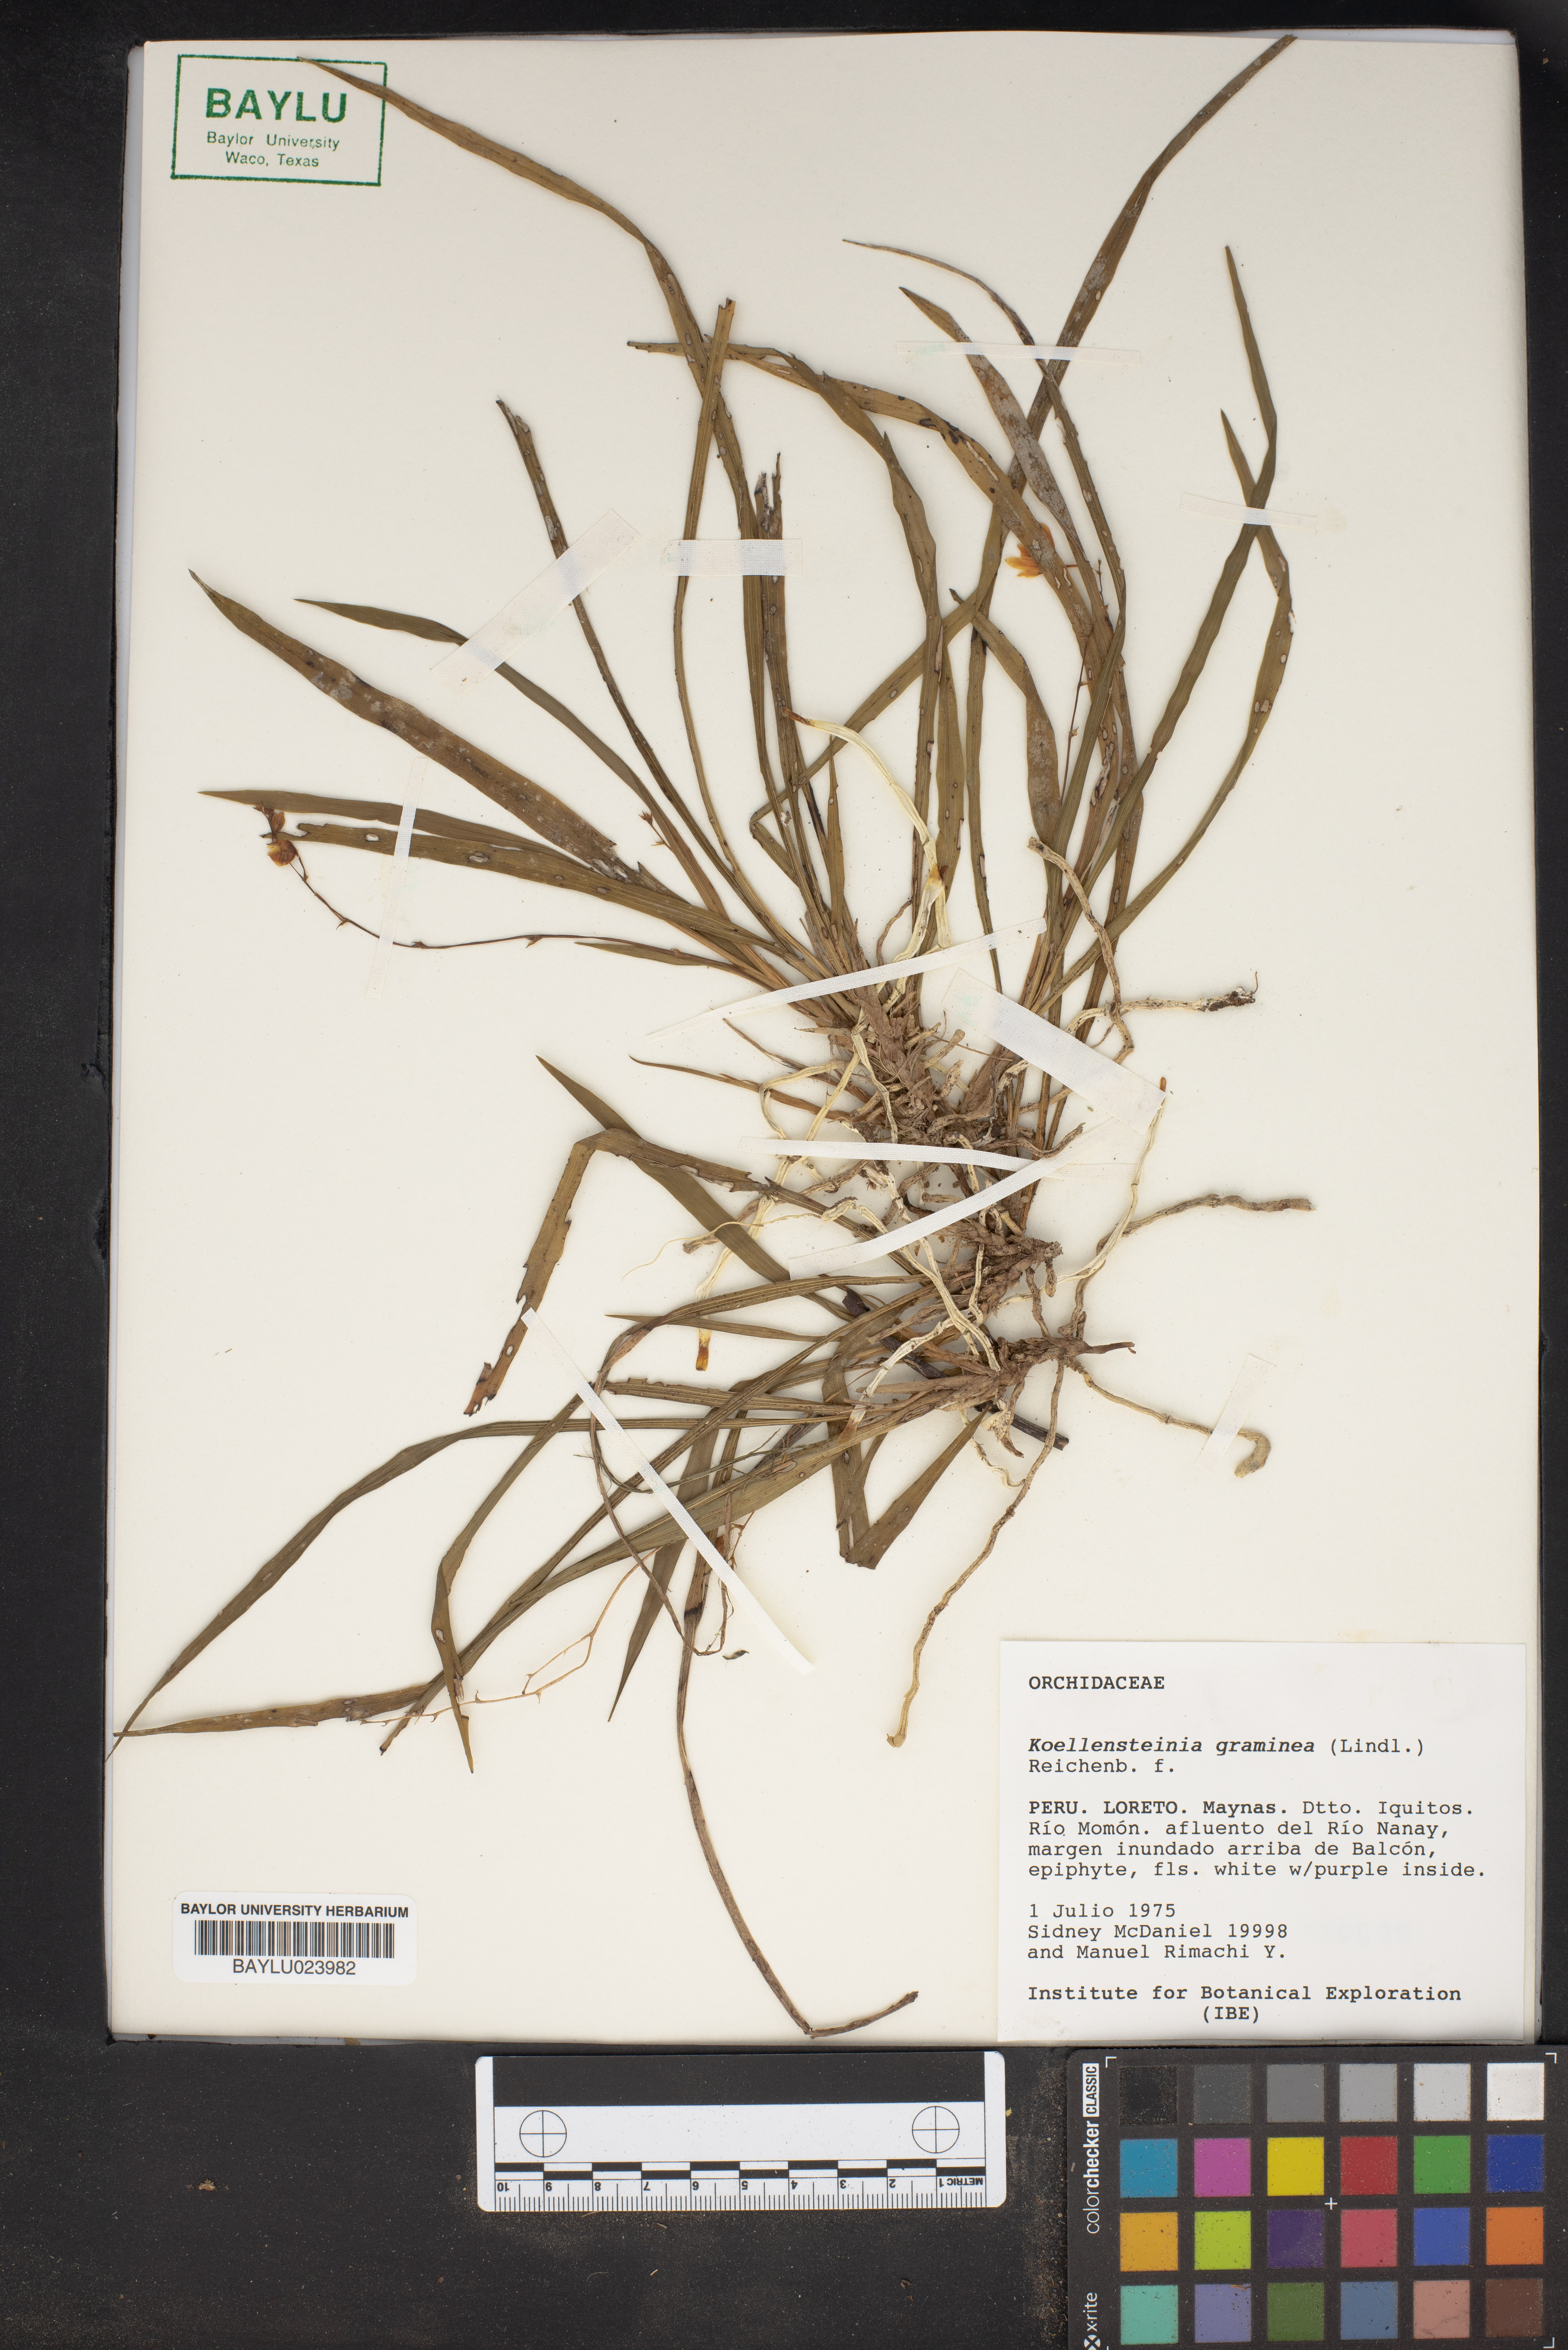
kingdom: Plantae
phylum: Tracheophyta
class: Liliopsida
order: Asparagales
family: Orchidaceae
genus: Koellensteinia
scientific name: Koellensteinia graminea
